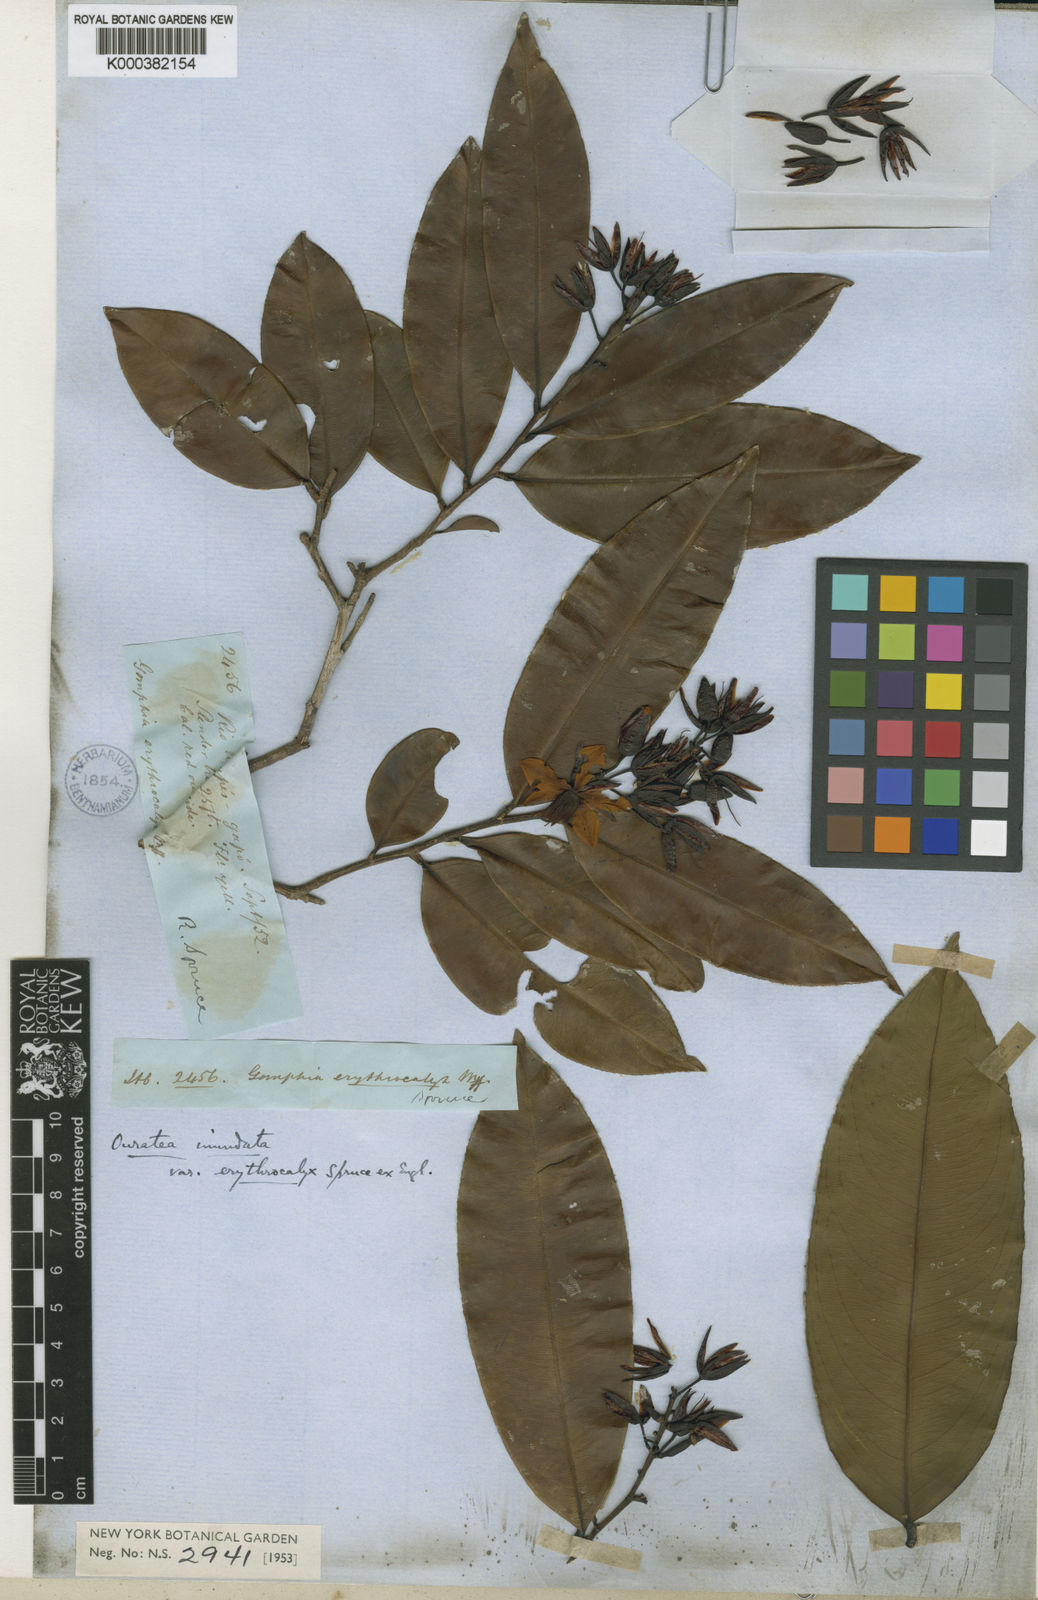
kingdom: Plantae
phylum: Tracheophyta
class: Magnoliopsida
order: Malpighiales
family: Ochnaceae
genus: Ouratea
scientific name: Ouratea inundata
